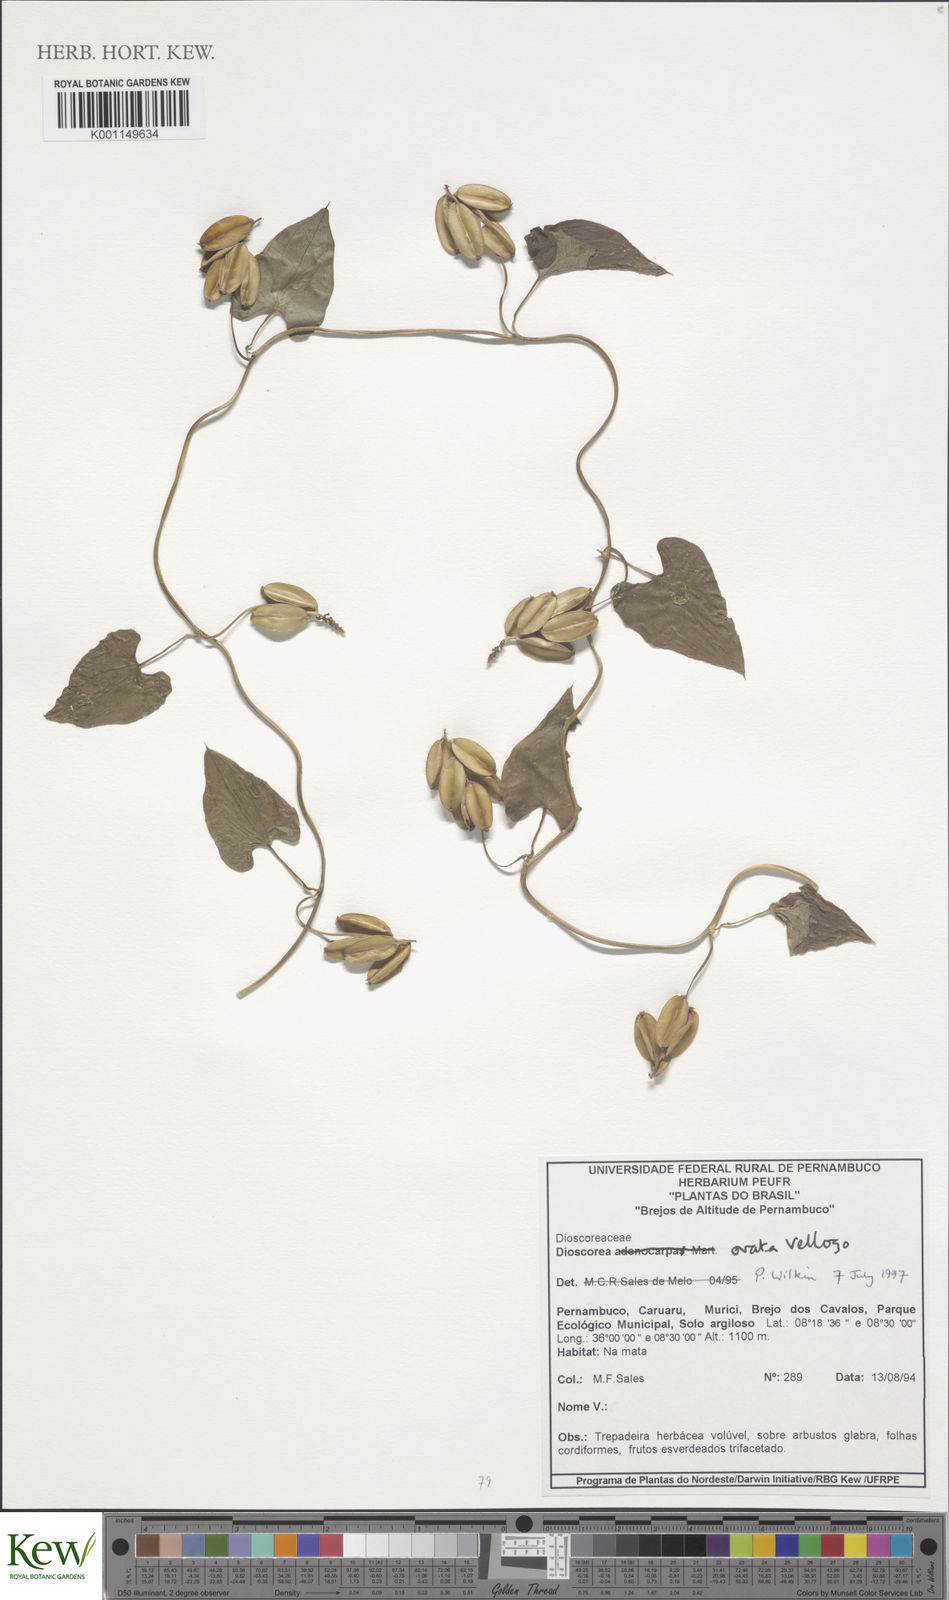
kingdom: Plantae
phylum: Tracheophyta
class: Liliopsida
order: Dioscoreales
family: Dioscoreaceae
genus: Dioscorea
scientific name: Dioscorea glandulosa
